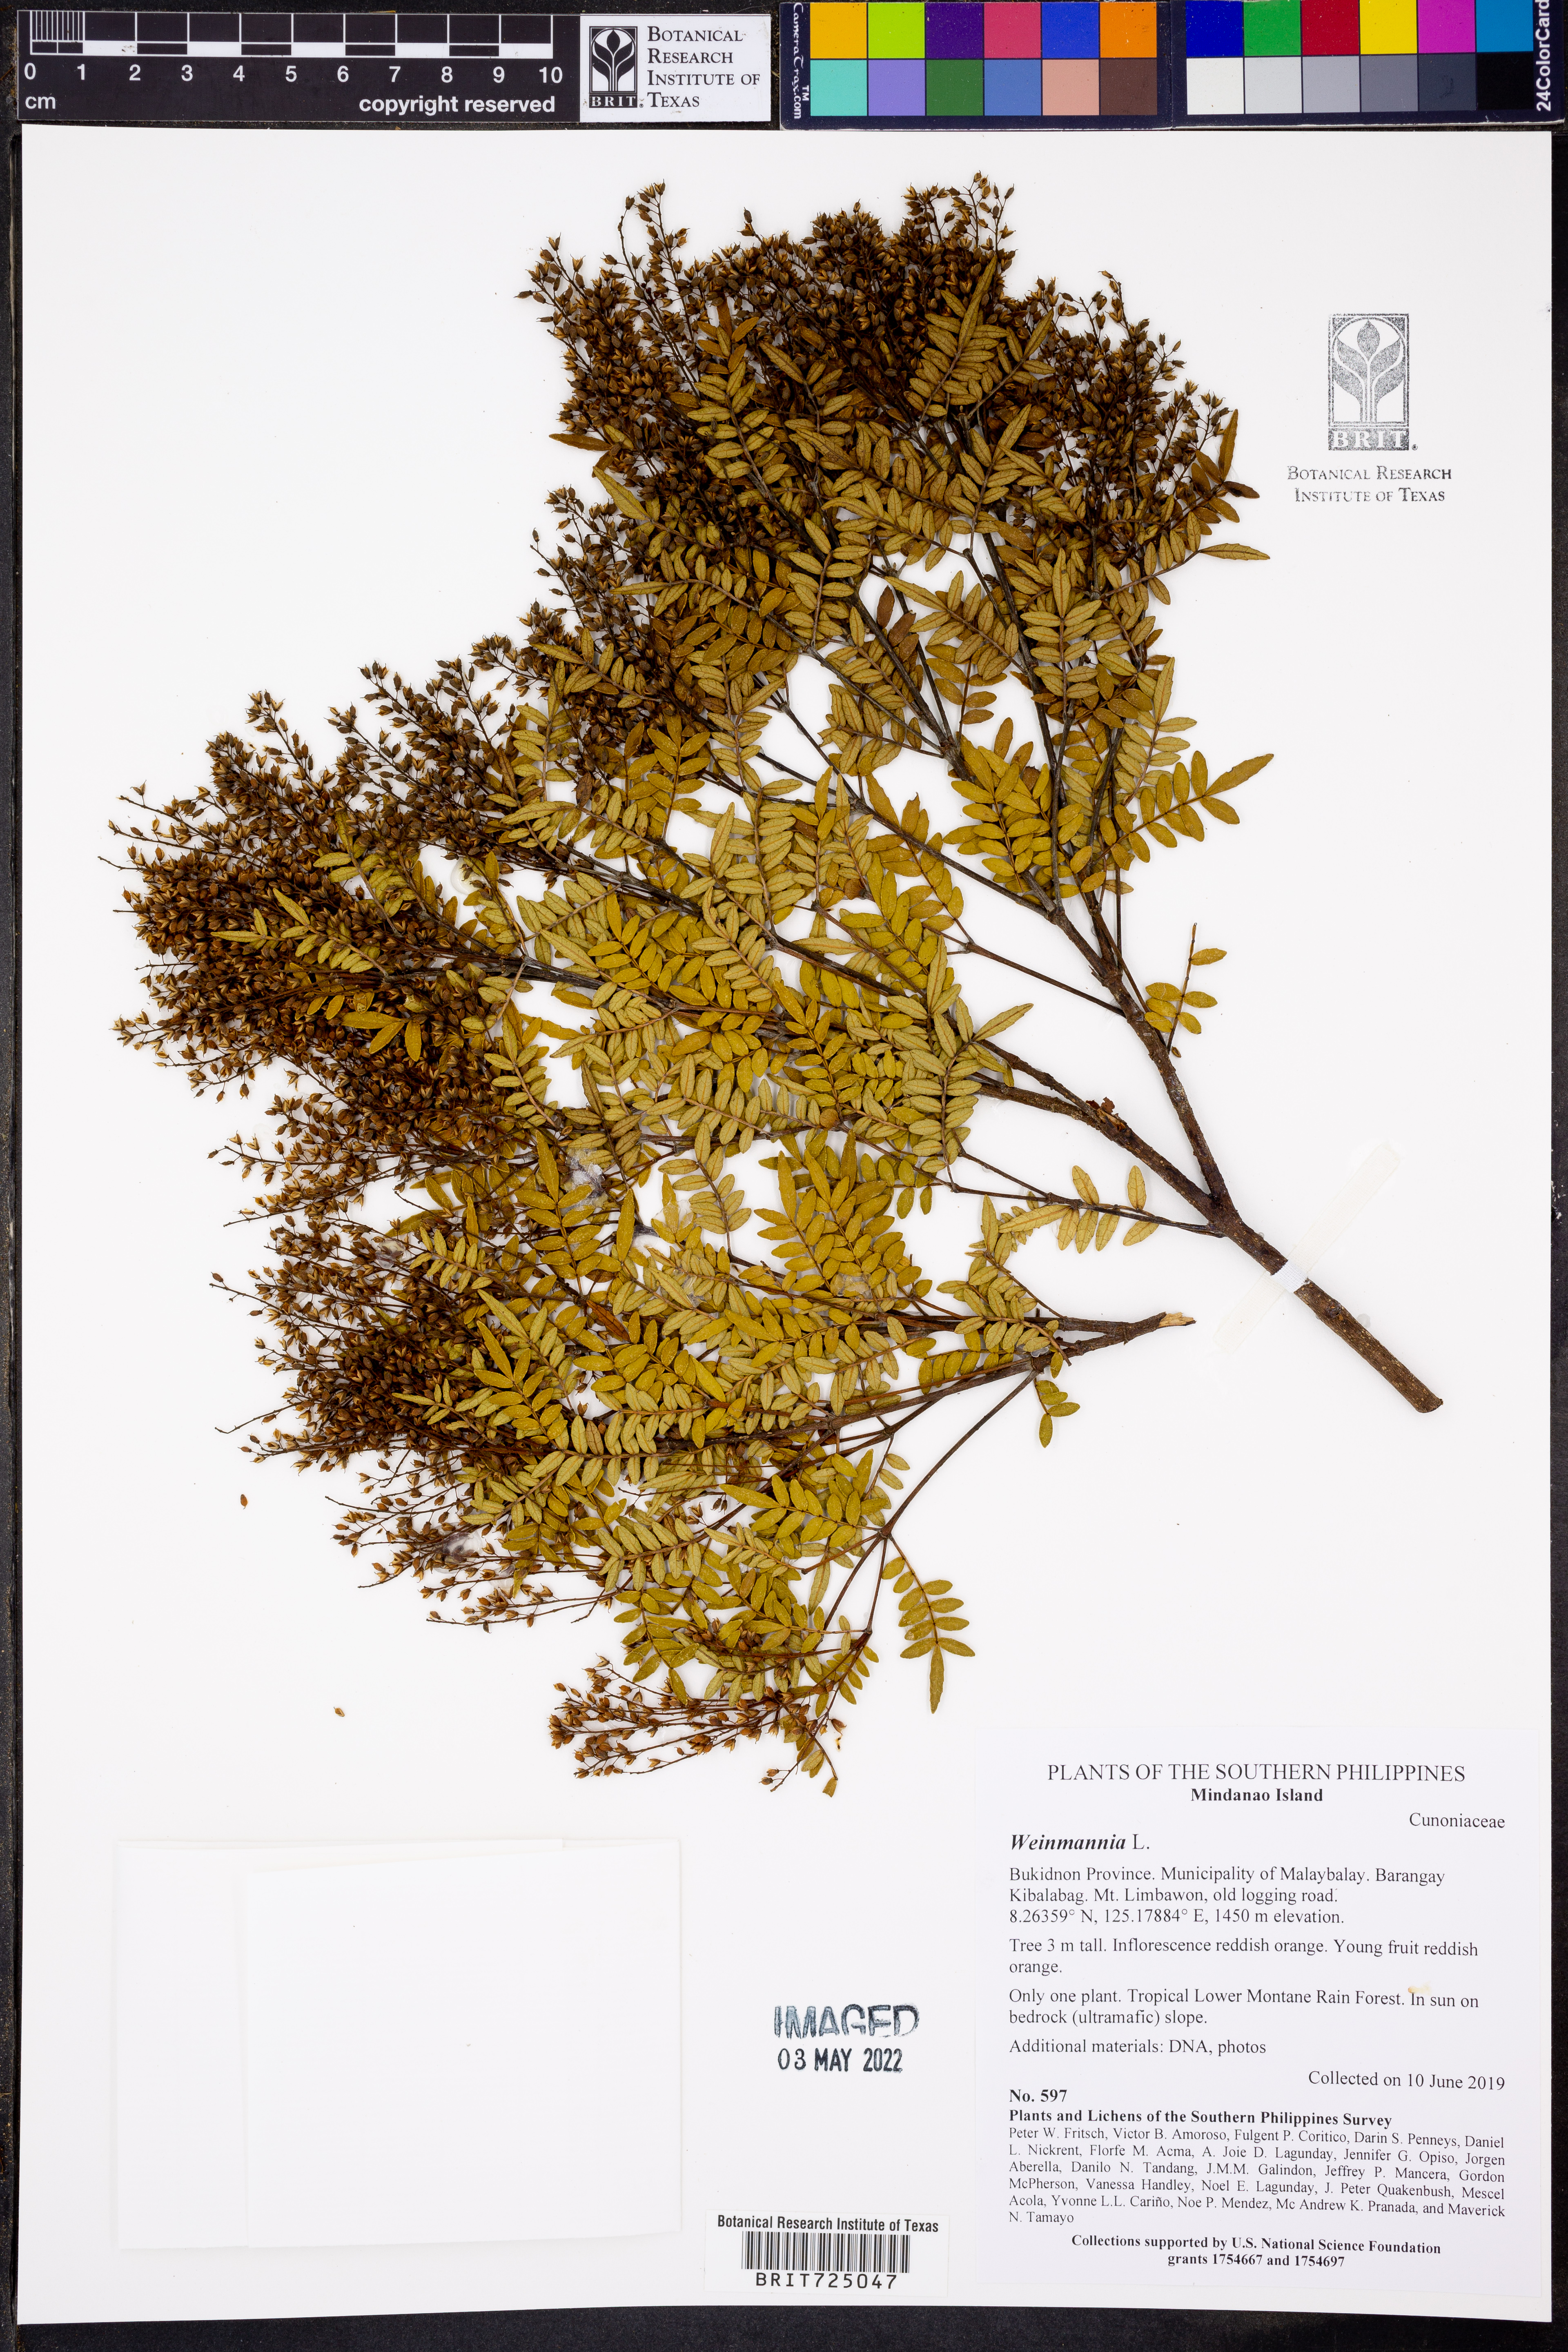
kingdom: Plantae
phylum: Tracheophyta
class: Magnoliopsida
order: Oxalidales
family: Cunoniaceae
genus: Weinmannia
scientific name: Weinmannia
